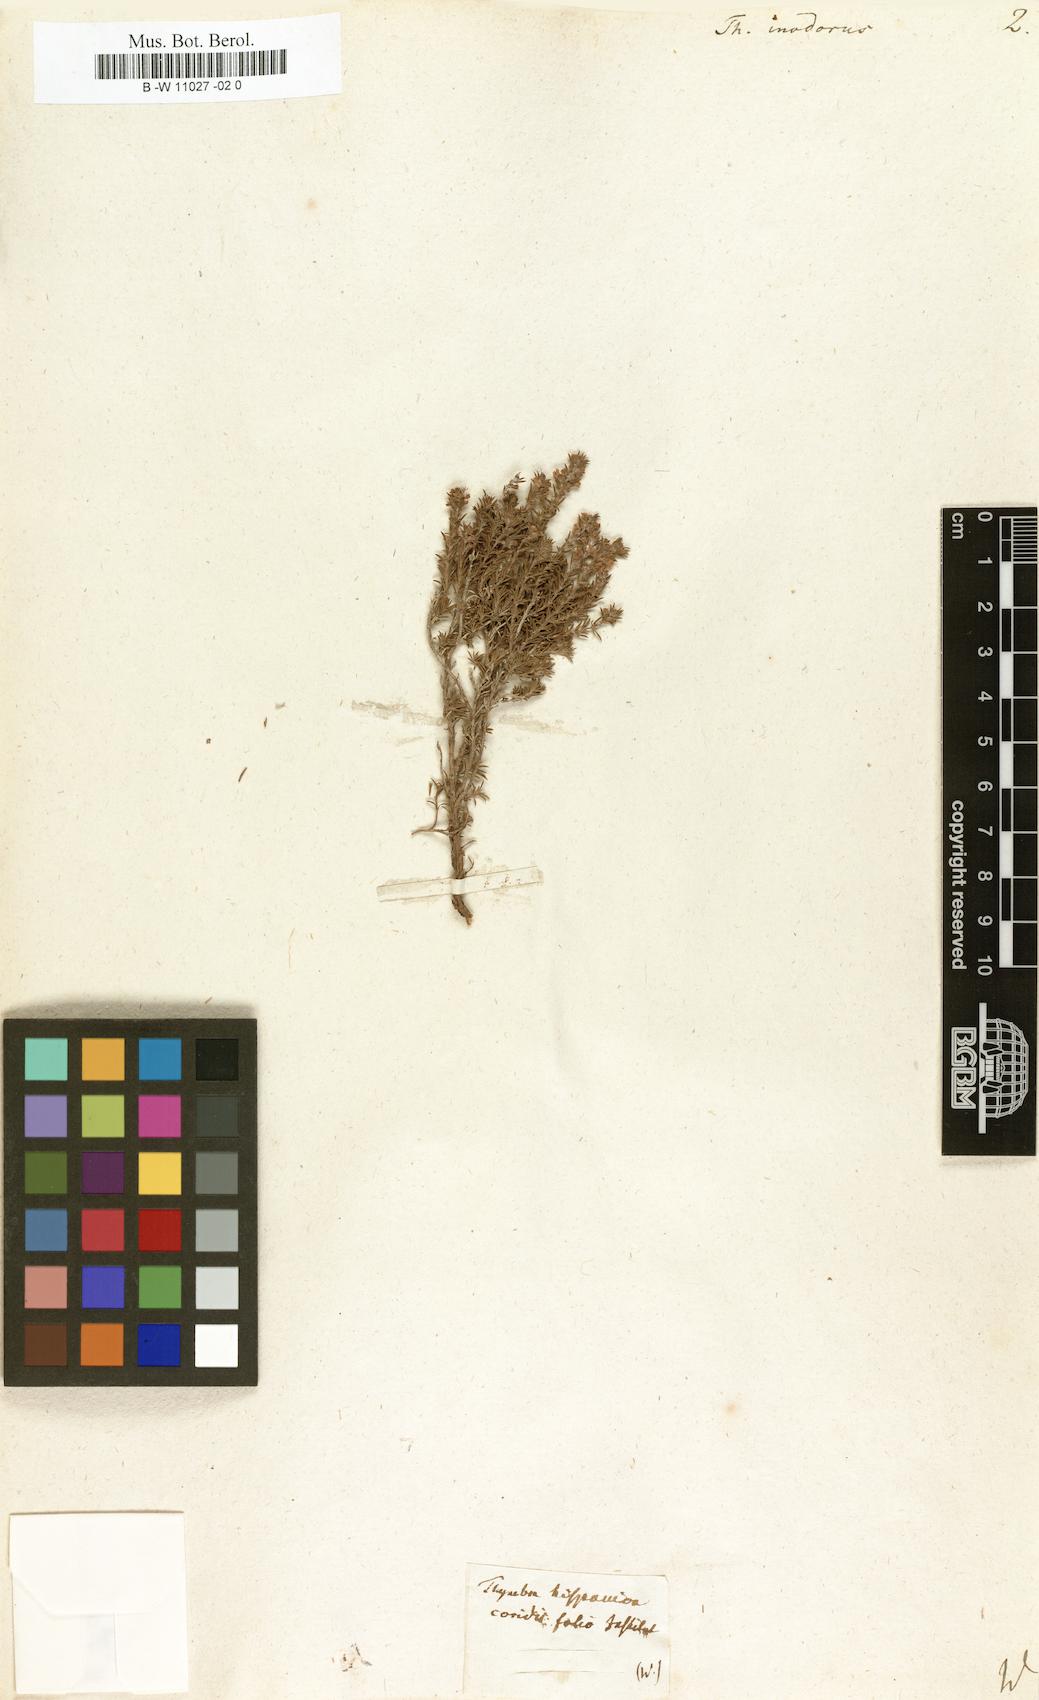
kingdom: Plantae
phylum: Tracheophyta
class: Magnoliopsida
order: Lamiales
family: Lamiaceae
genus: Thymus
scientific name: Thymus inodorus
